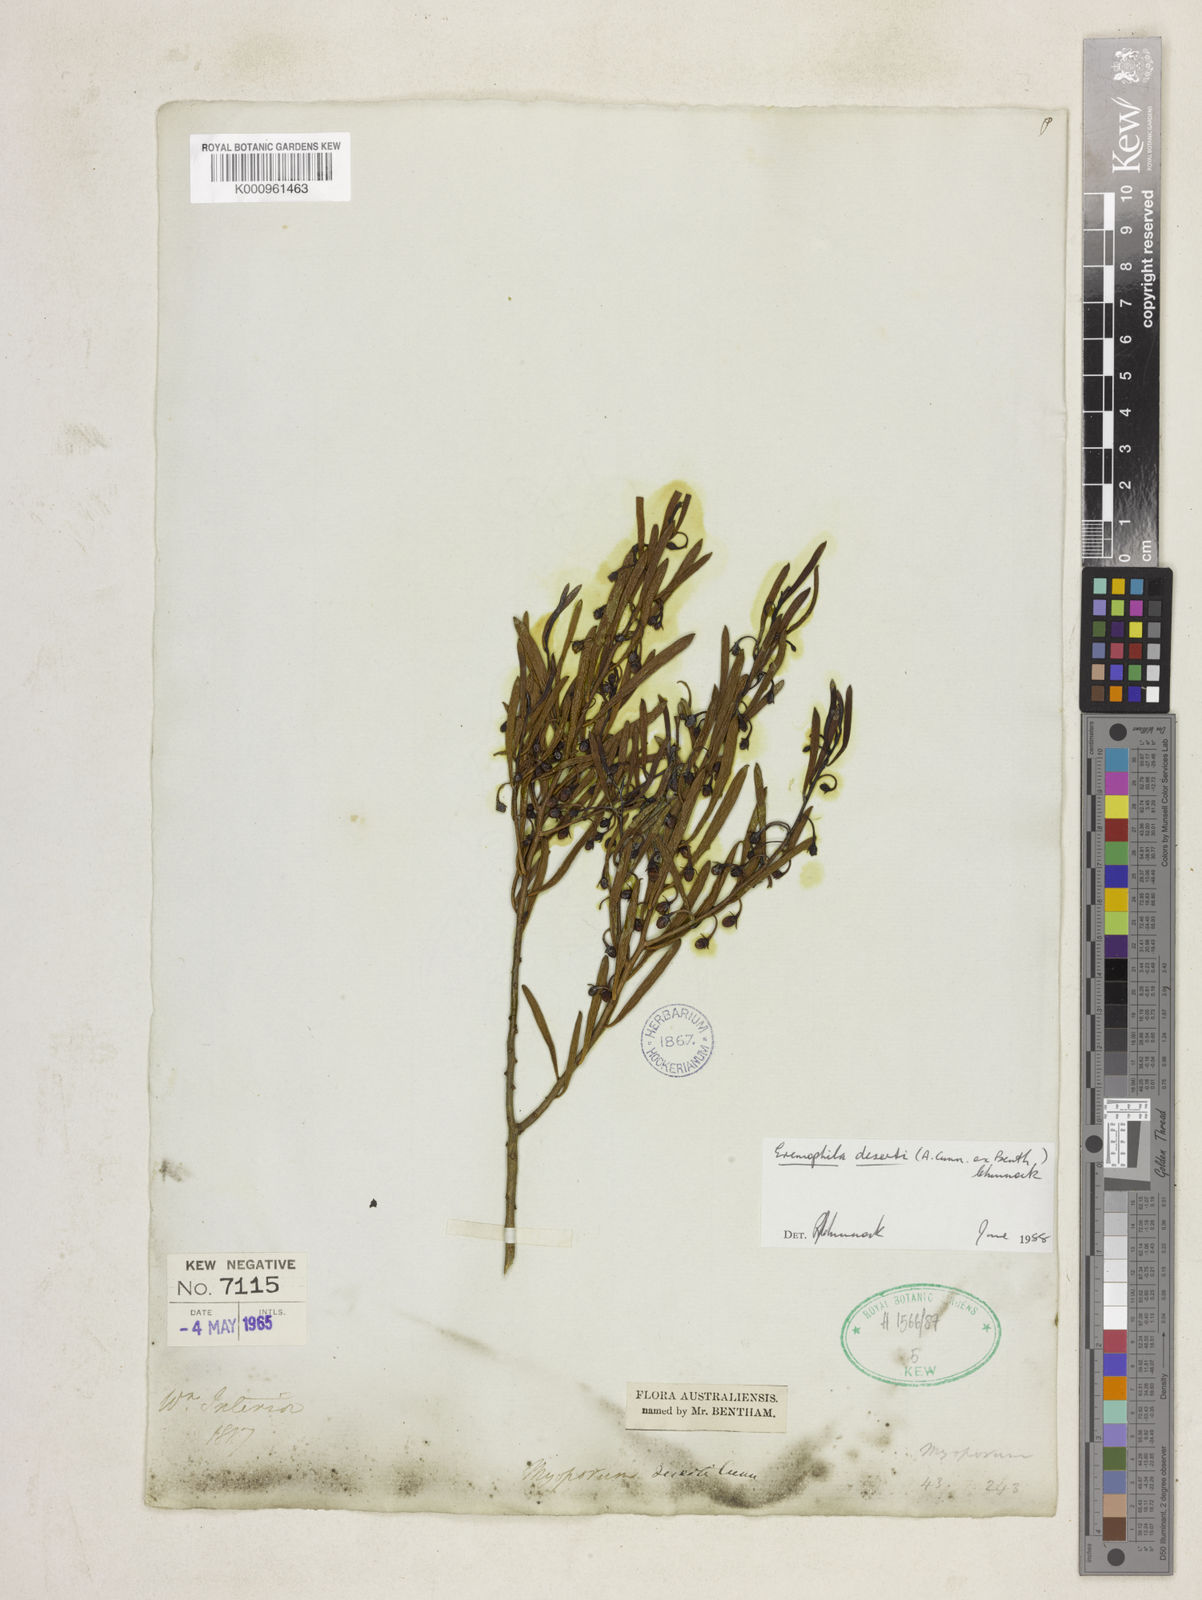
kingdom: Plantae
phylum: Tracheophyta
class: Magnoliopsida
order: Lamiales
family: Scrophulariaceae
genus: Eremophila
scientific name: Eremophila deserti
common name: Ellangowan-poisonbush
